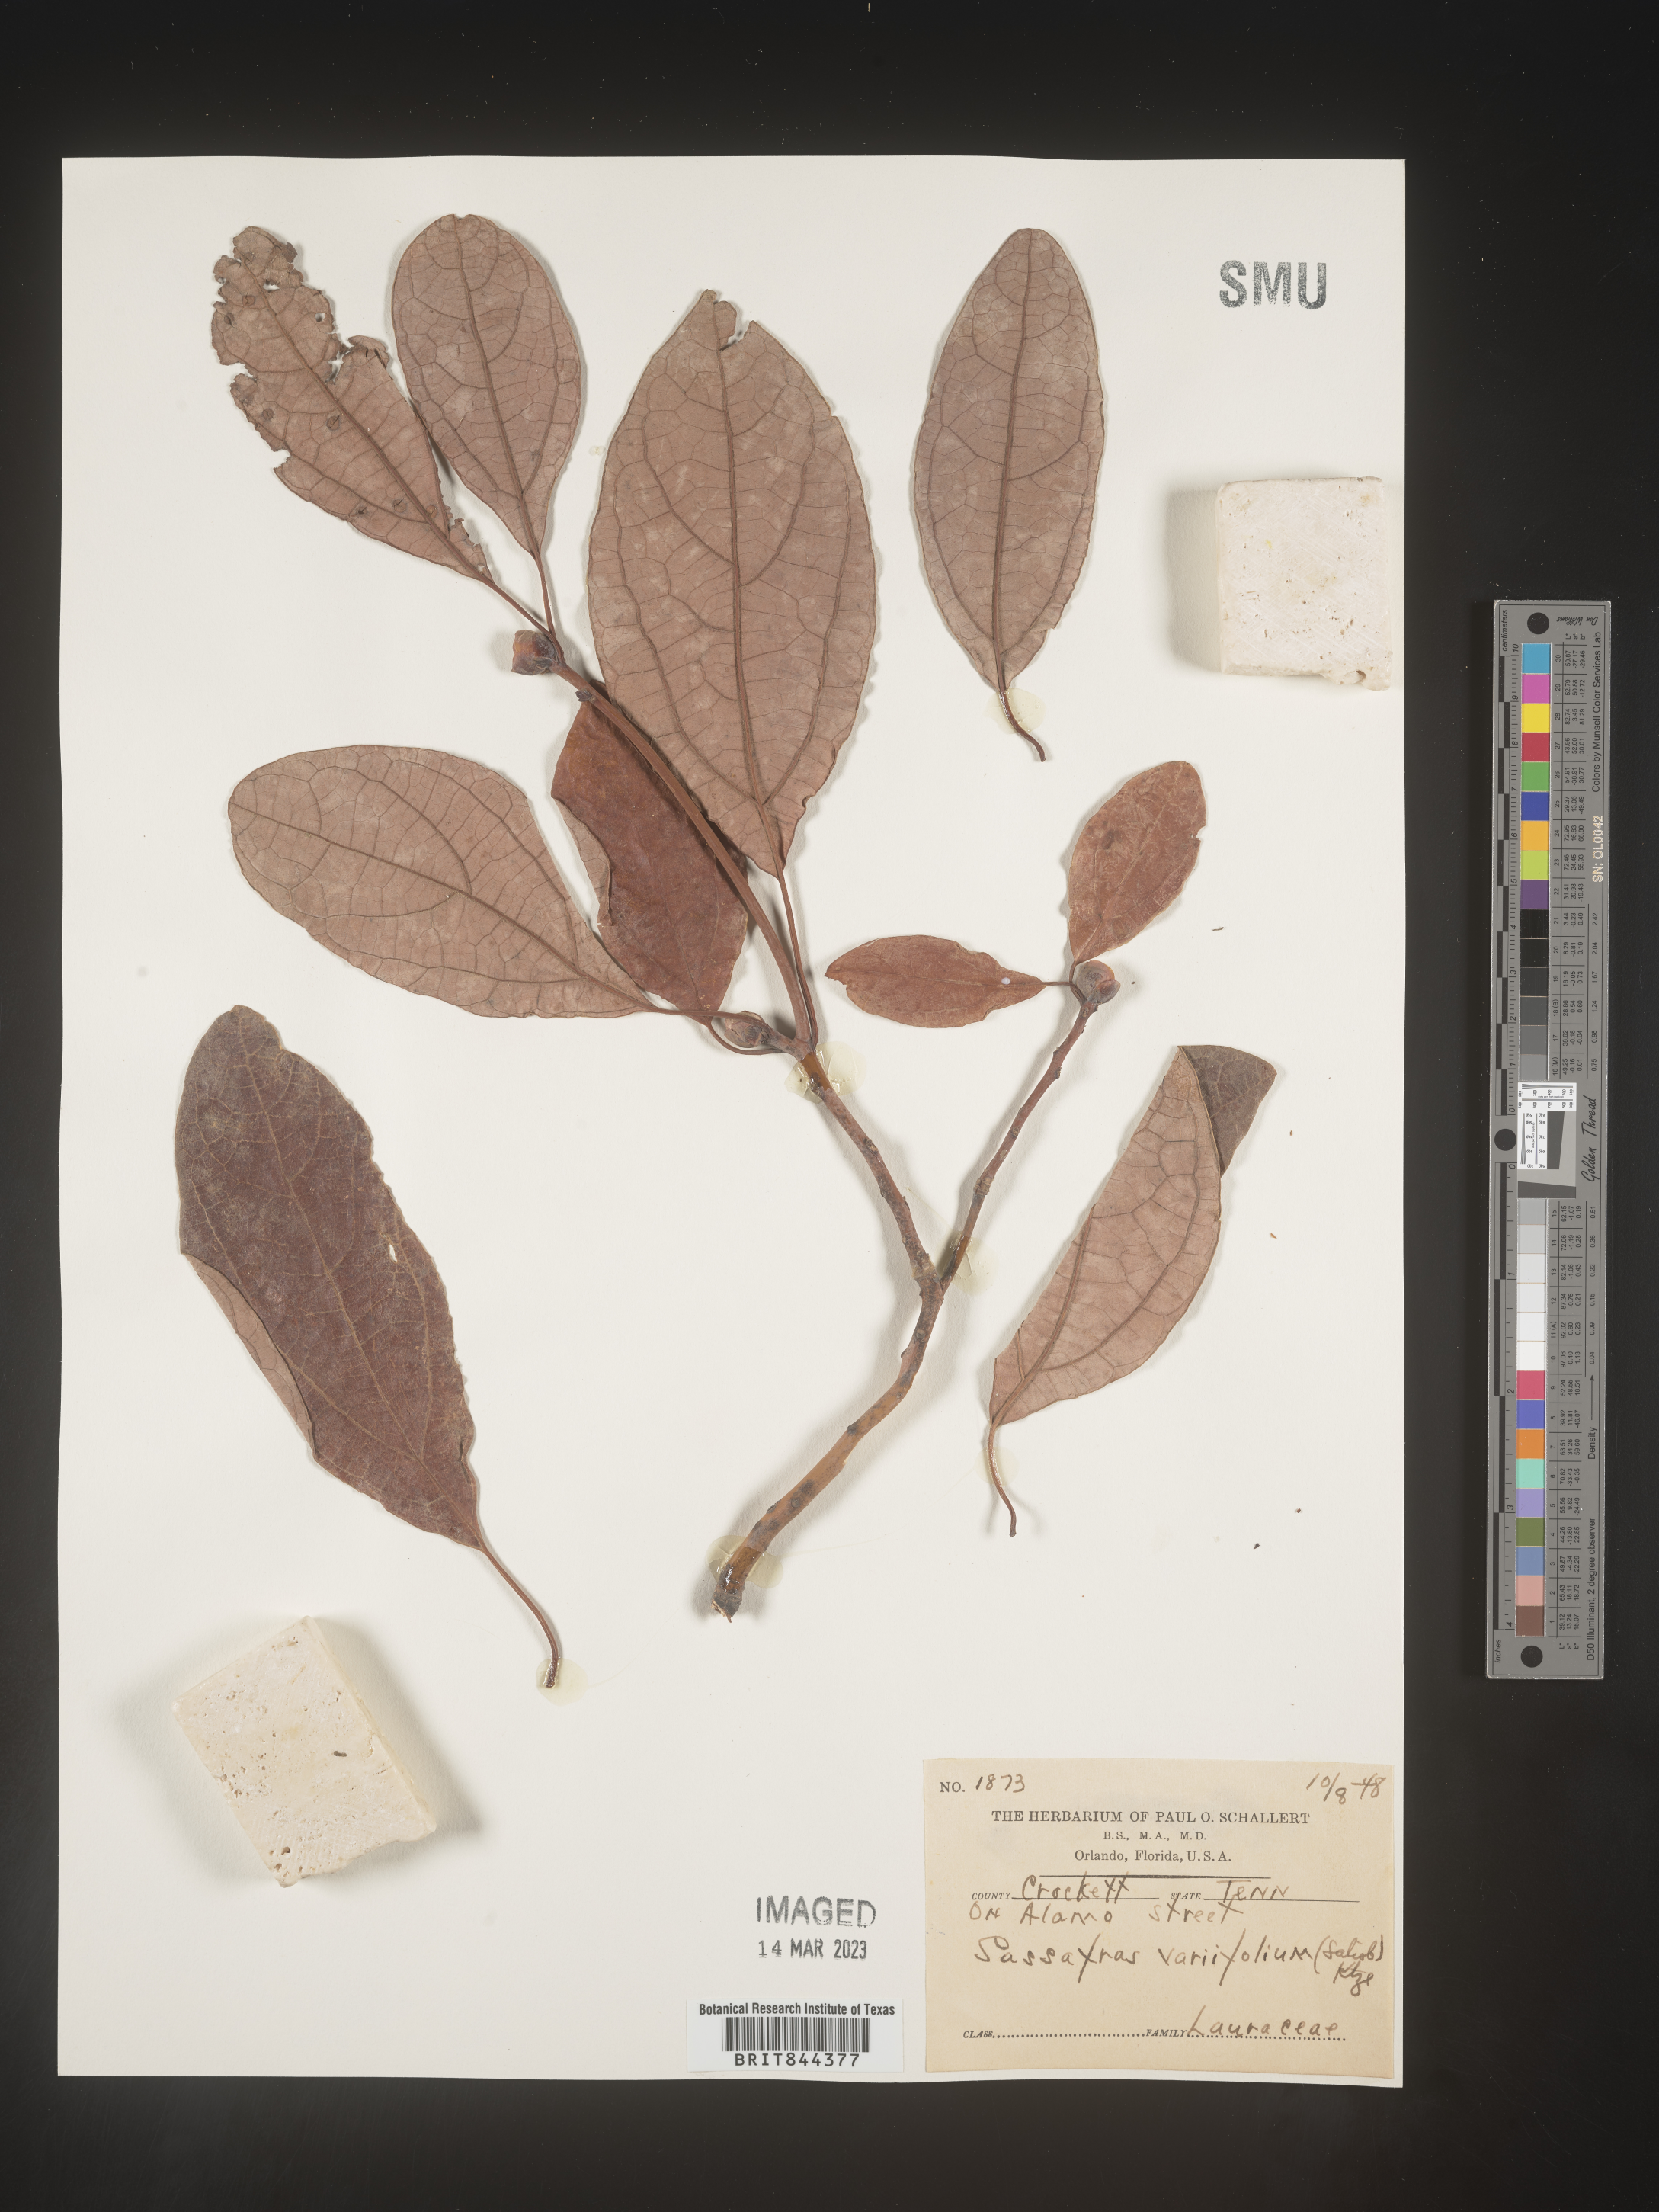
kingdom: Plantae
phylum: Tracheophyta
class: Magnoliopsida
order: Laurales
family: Lauraceae
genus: Sassafras
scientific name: Sassafras
